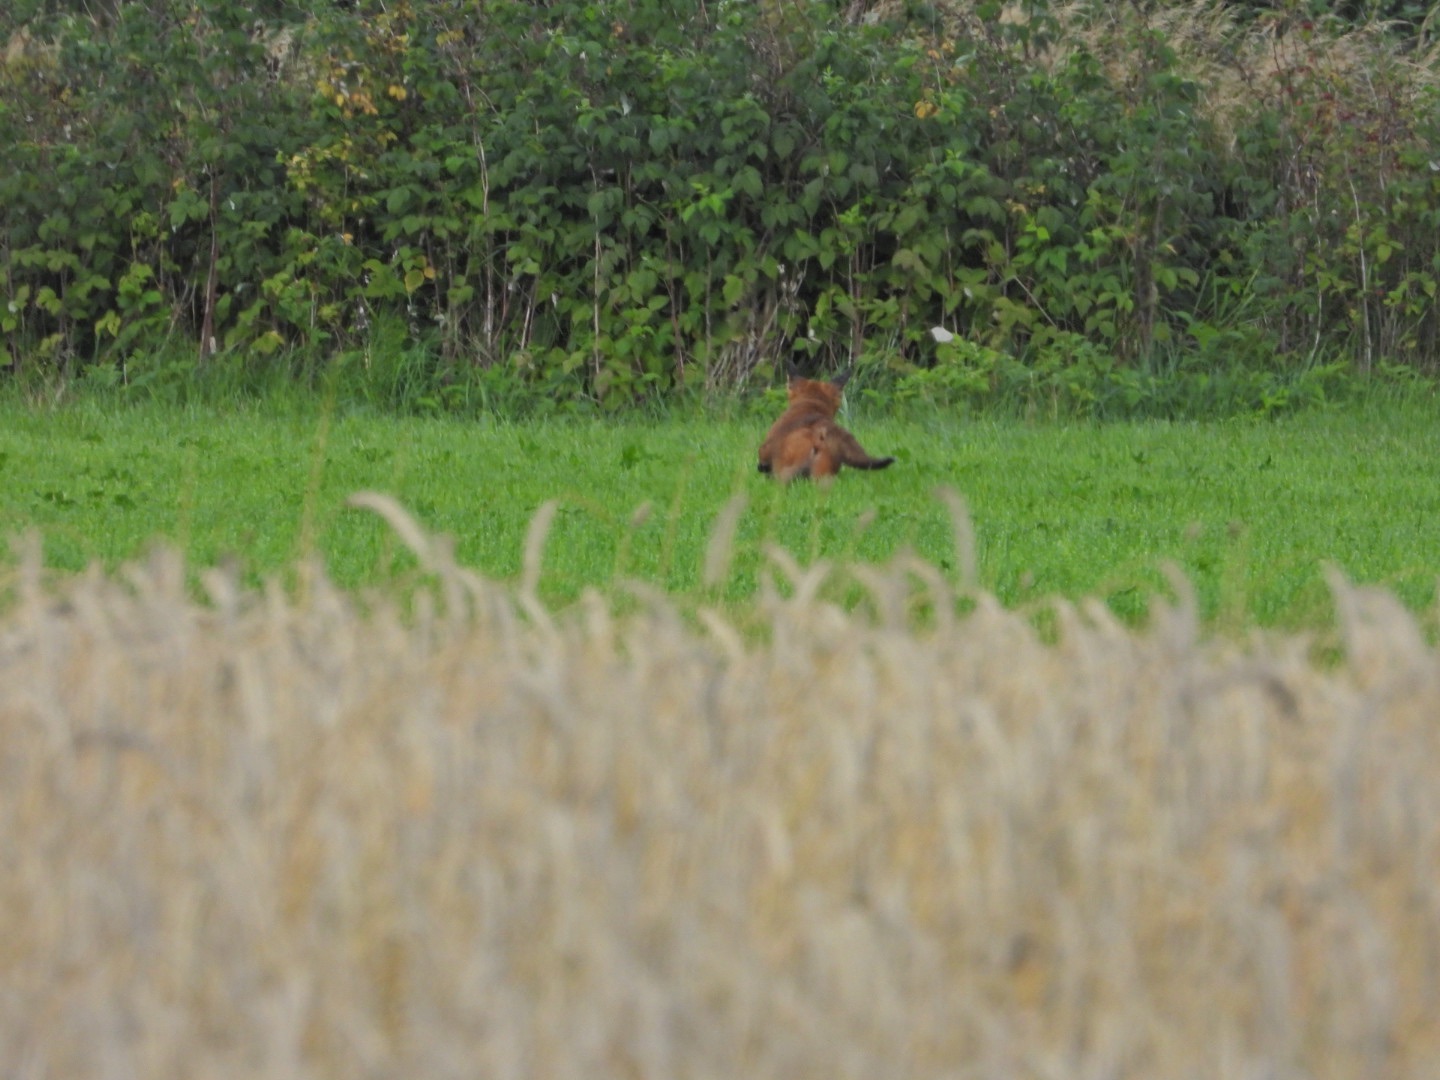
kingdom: Animalia
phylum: Chordata
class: Mammalia
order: Carnivora
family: Canidae
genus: Vulpes
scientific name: Vulpes vulpes
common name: Ræv
